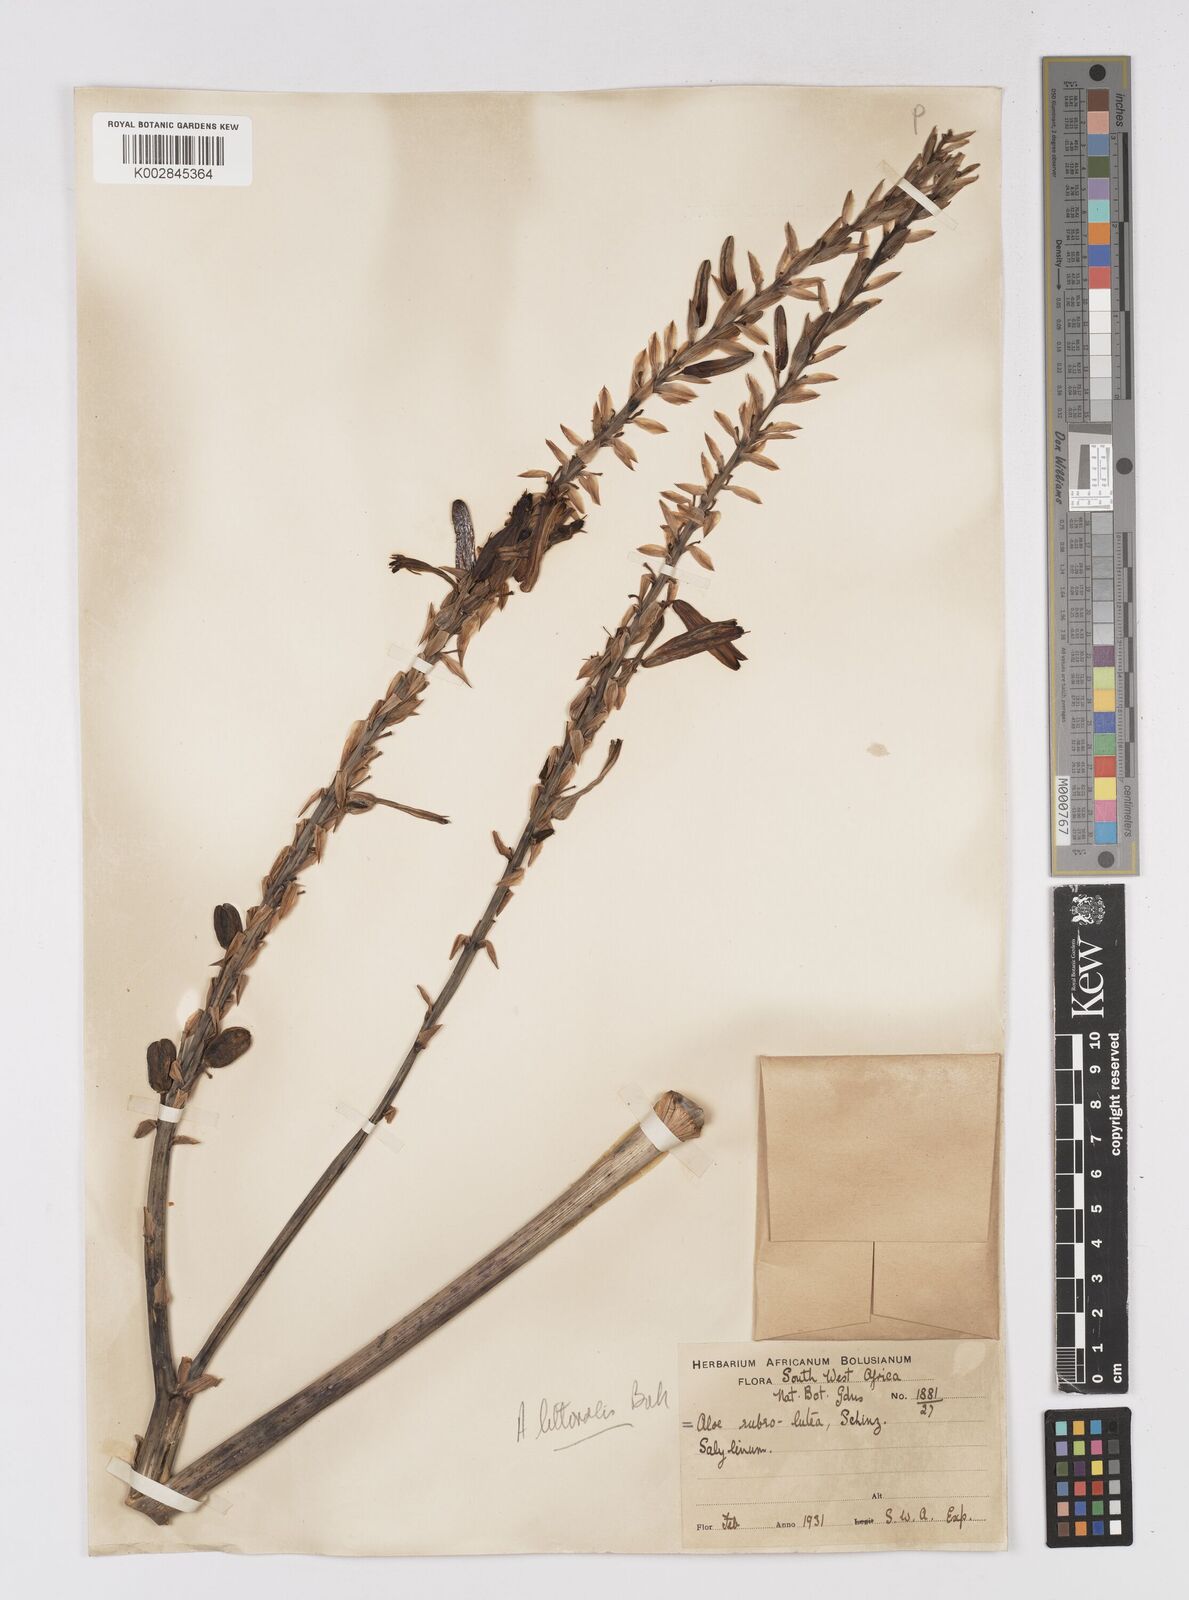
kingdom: Plantae
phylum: Tracheophyta
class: Liliopsida
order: Asparagales
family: Asphodelaceae
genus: Aloe
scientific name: Aloe littoralis
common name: Luanda tree aloe
